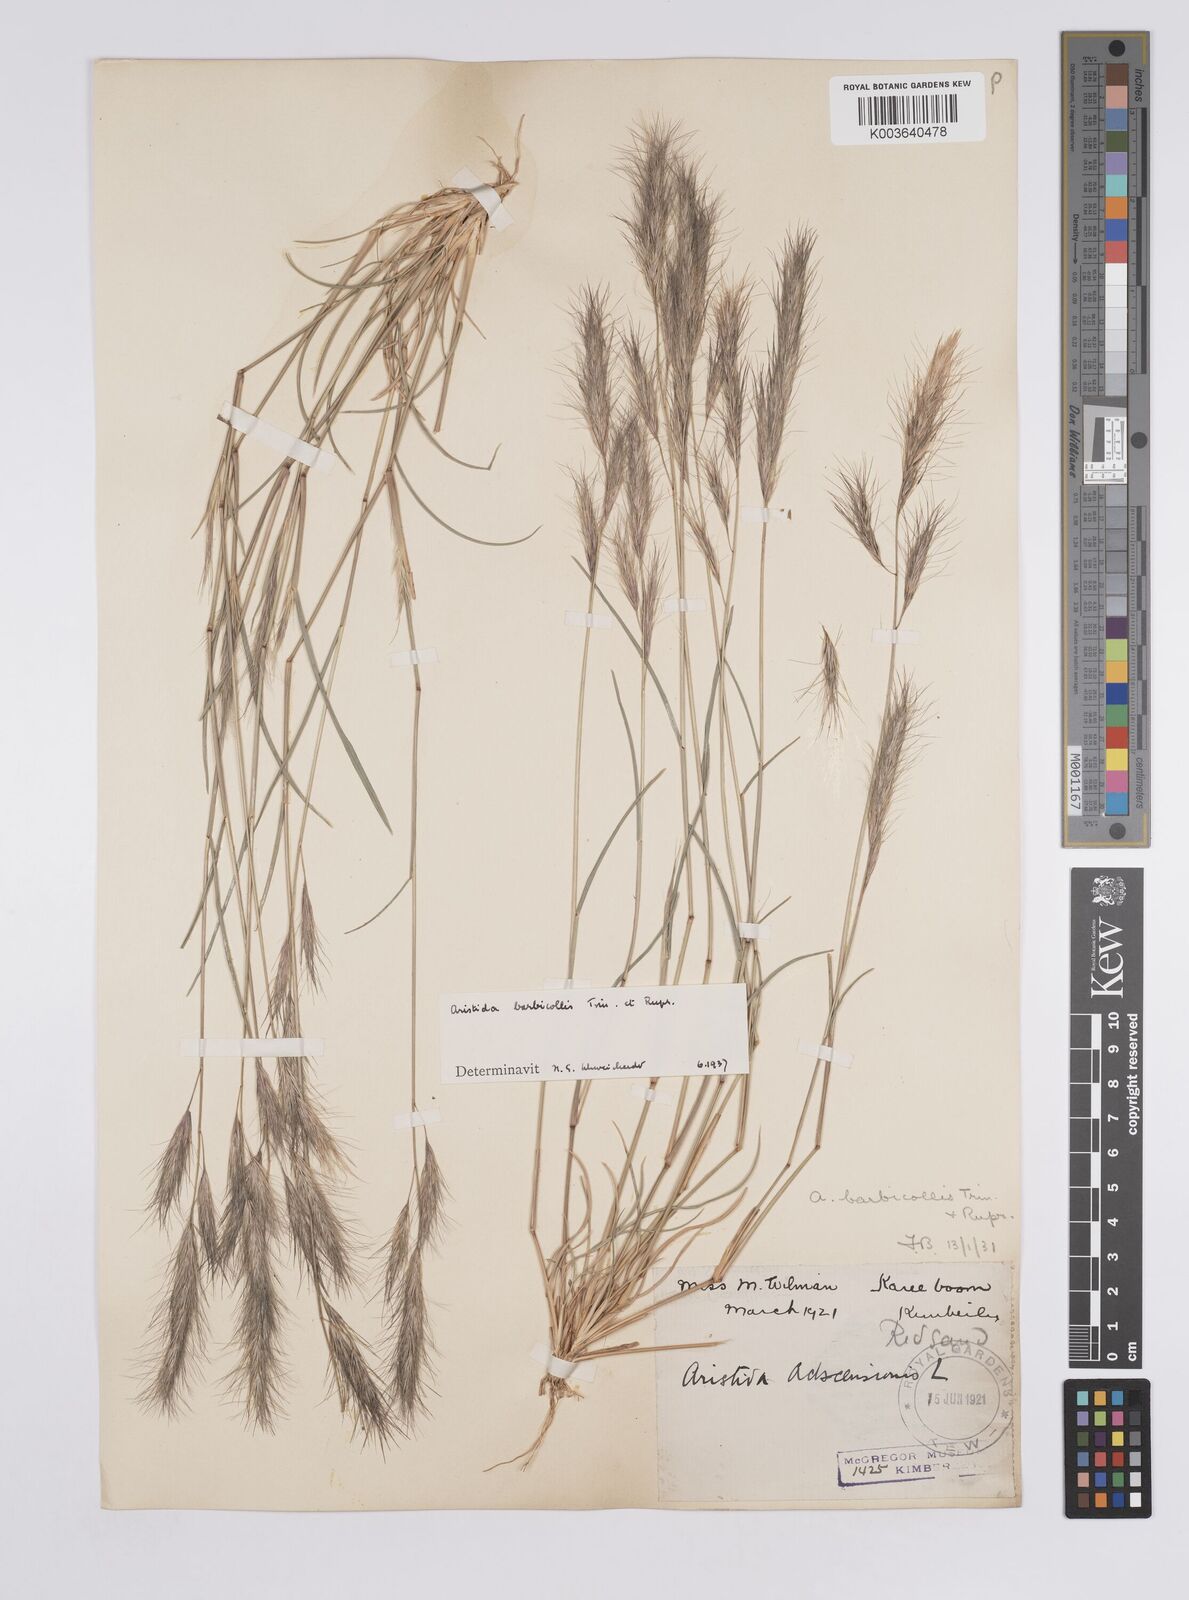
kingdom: Plantae
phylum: Tracheophyta
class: Liliopsida
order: Poales
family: Poaceae
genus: Aristida
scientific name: Aristida barbicollis
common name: Spreading prickle grass
